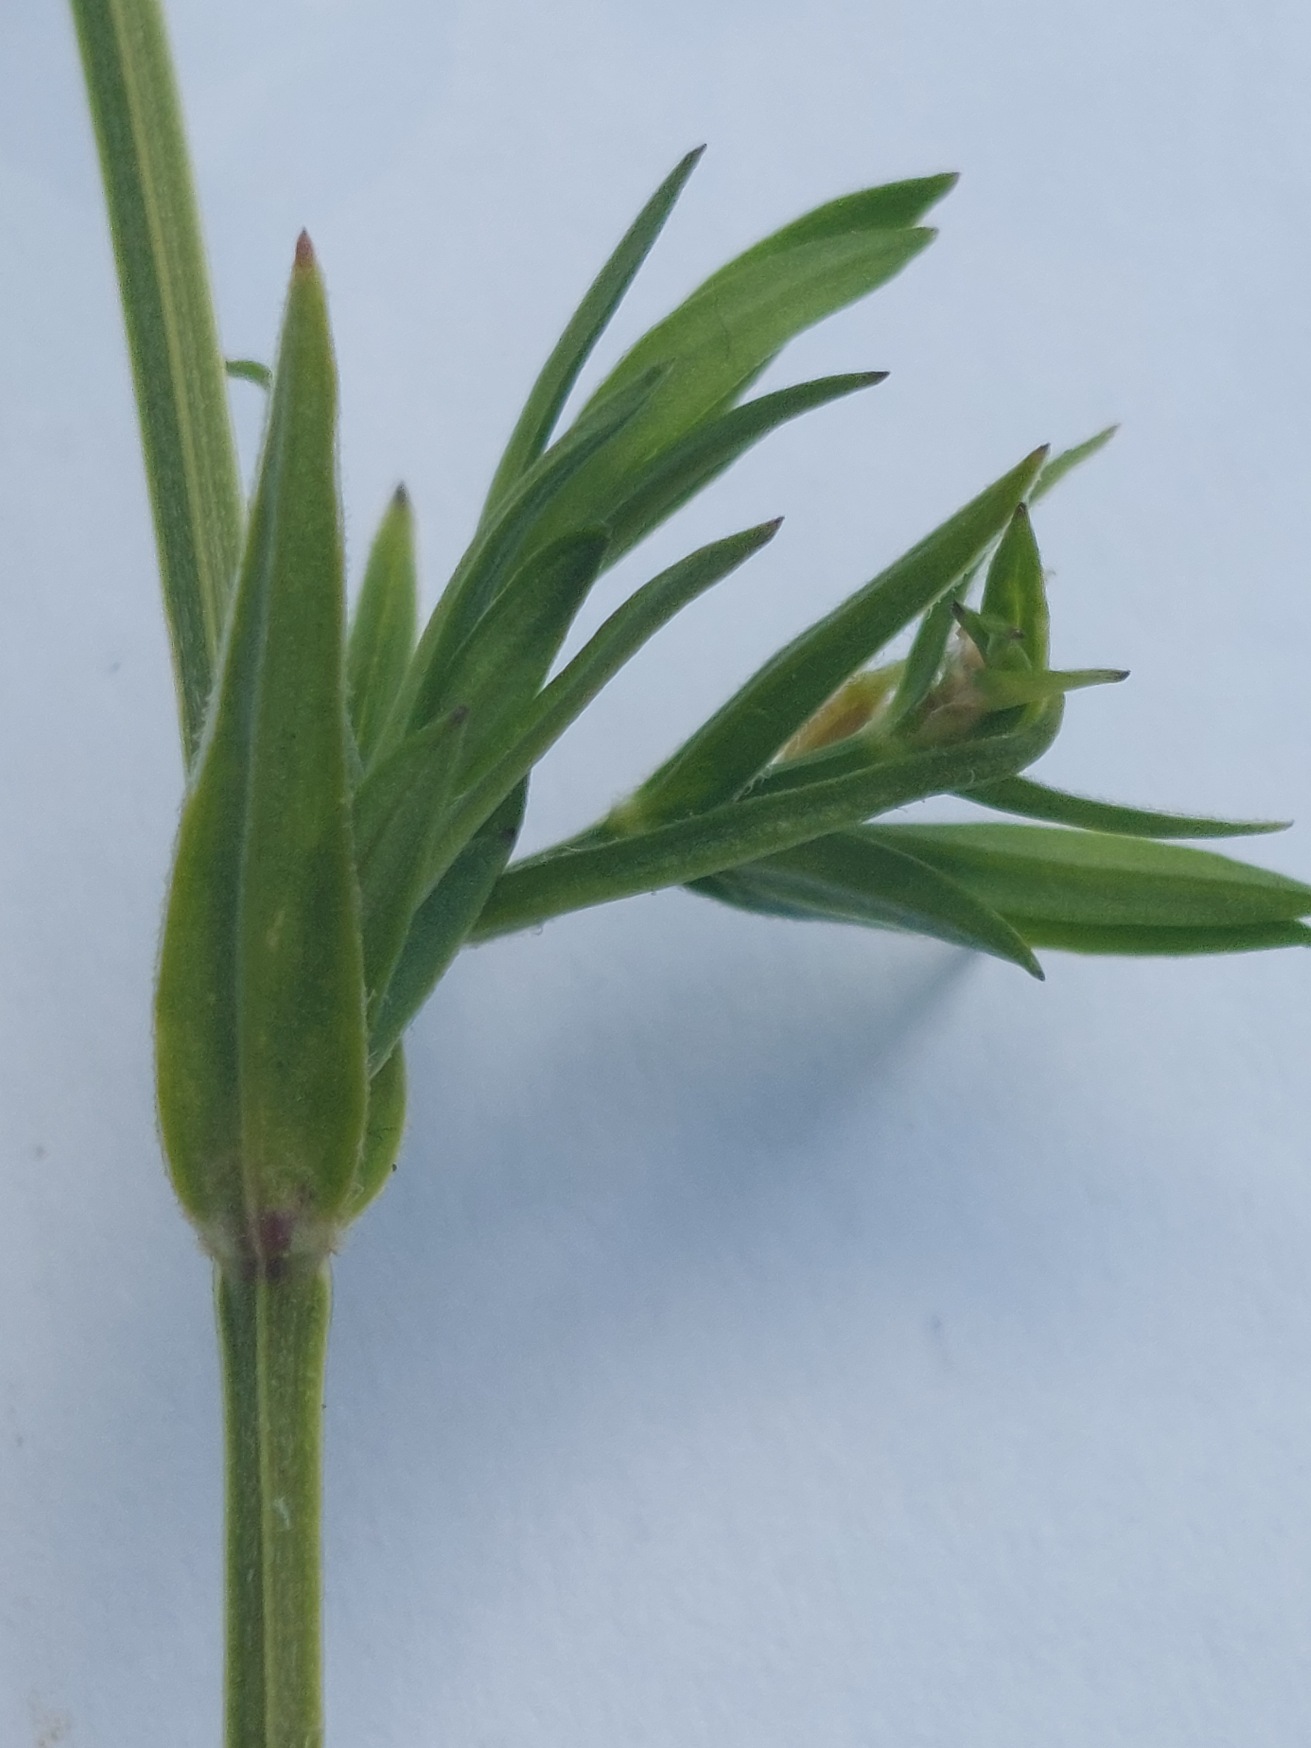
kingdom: Plantae
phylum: Tracheophyta
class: Magnoliopsida
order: Caryophyllales
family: Caryophyllaceae
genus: Stellaria
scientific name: Stellaria graminea
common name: Græsbladet fladstjerne
